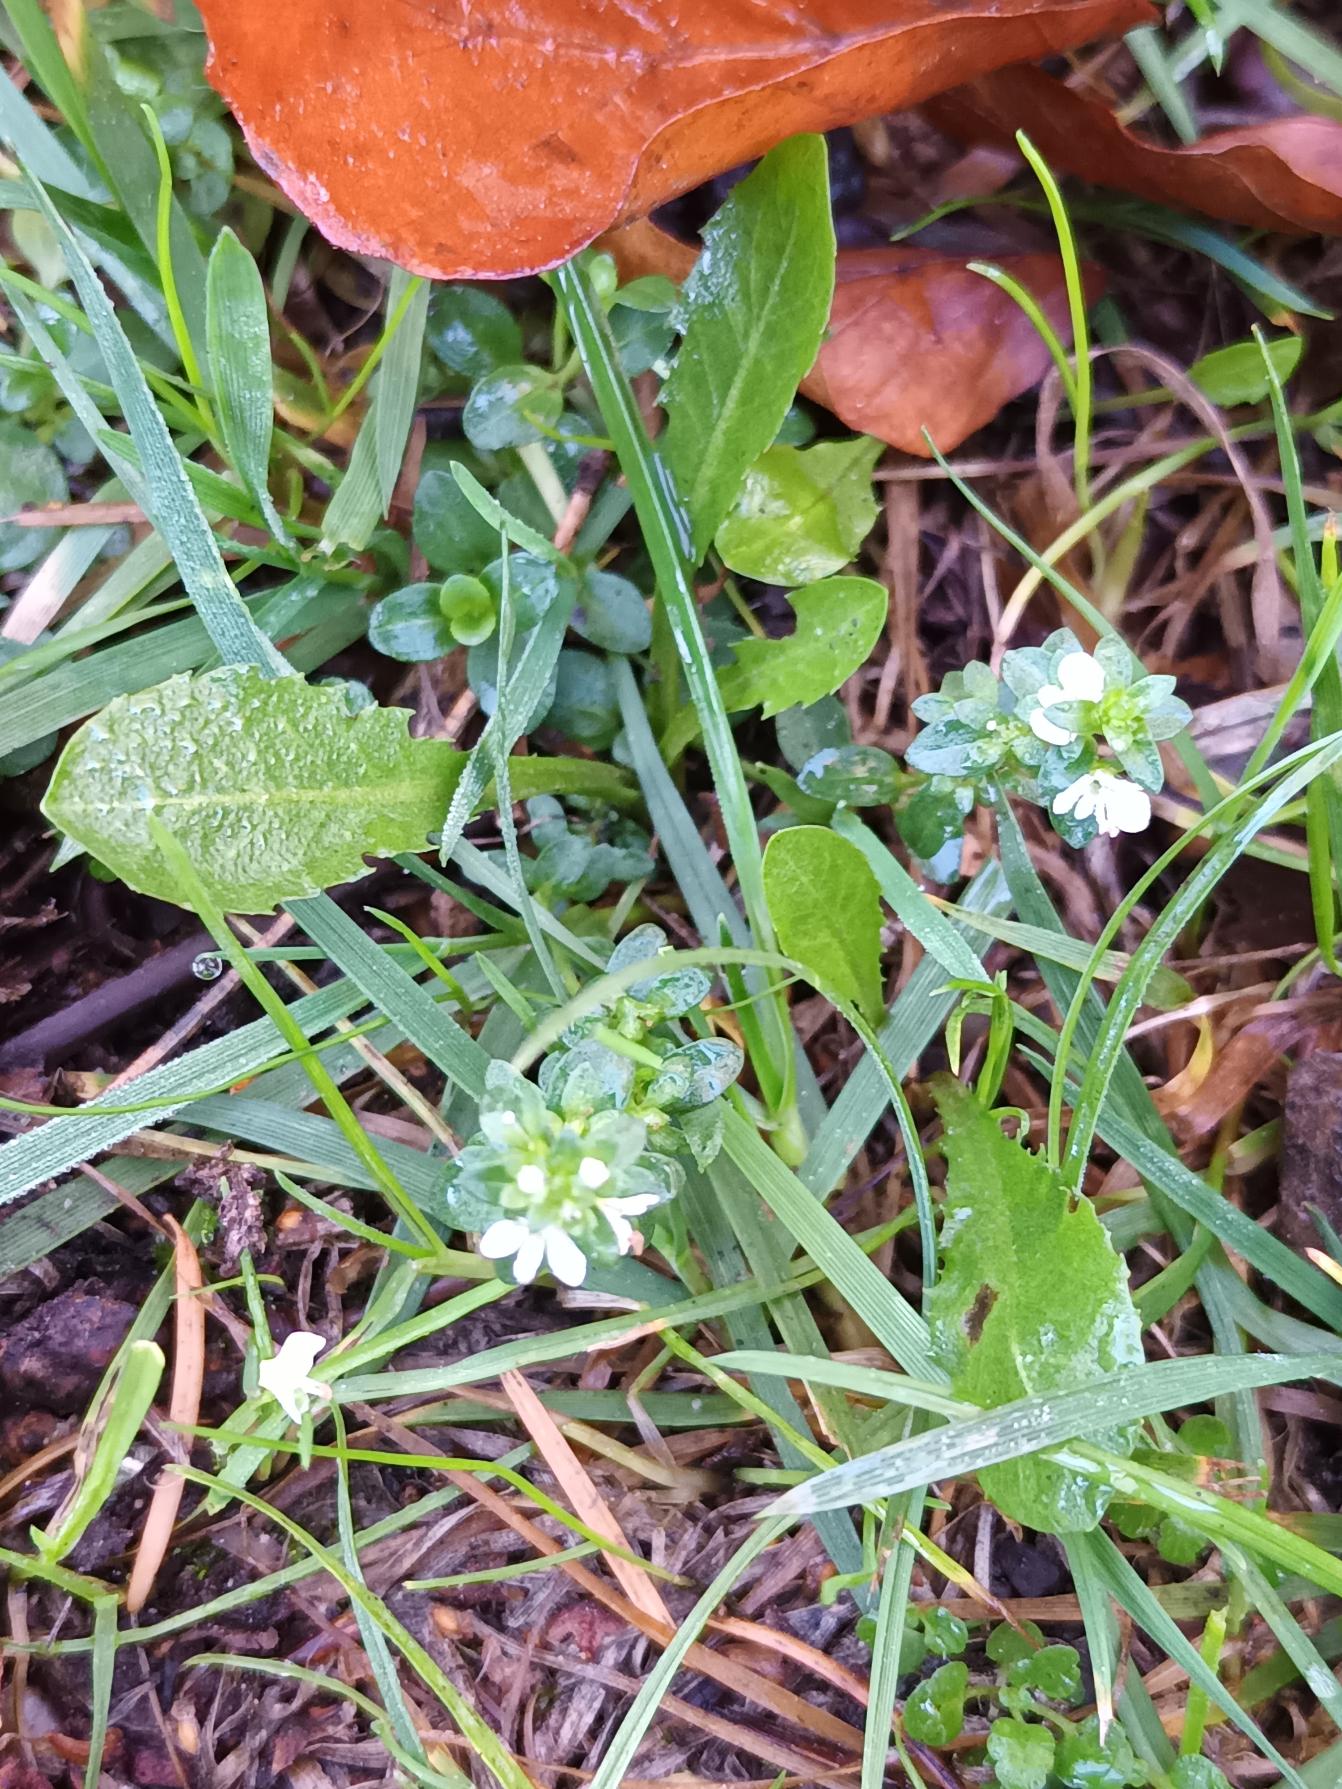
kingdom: Plantae
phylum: Tracheophyta
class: Magnoliopsida
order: Lamiales
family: Plantaginaceae
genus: Veronica
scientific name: Veronica serpyllifolia
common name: Glat ærenpris
